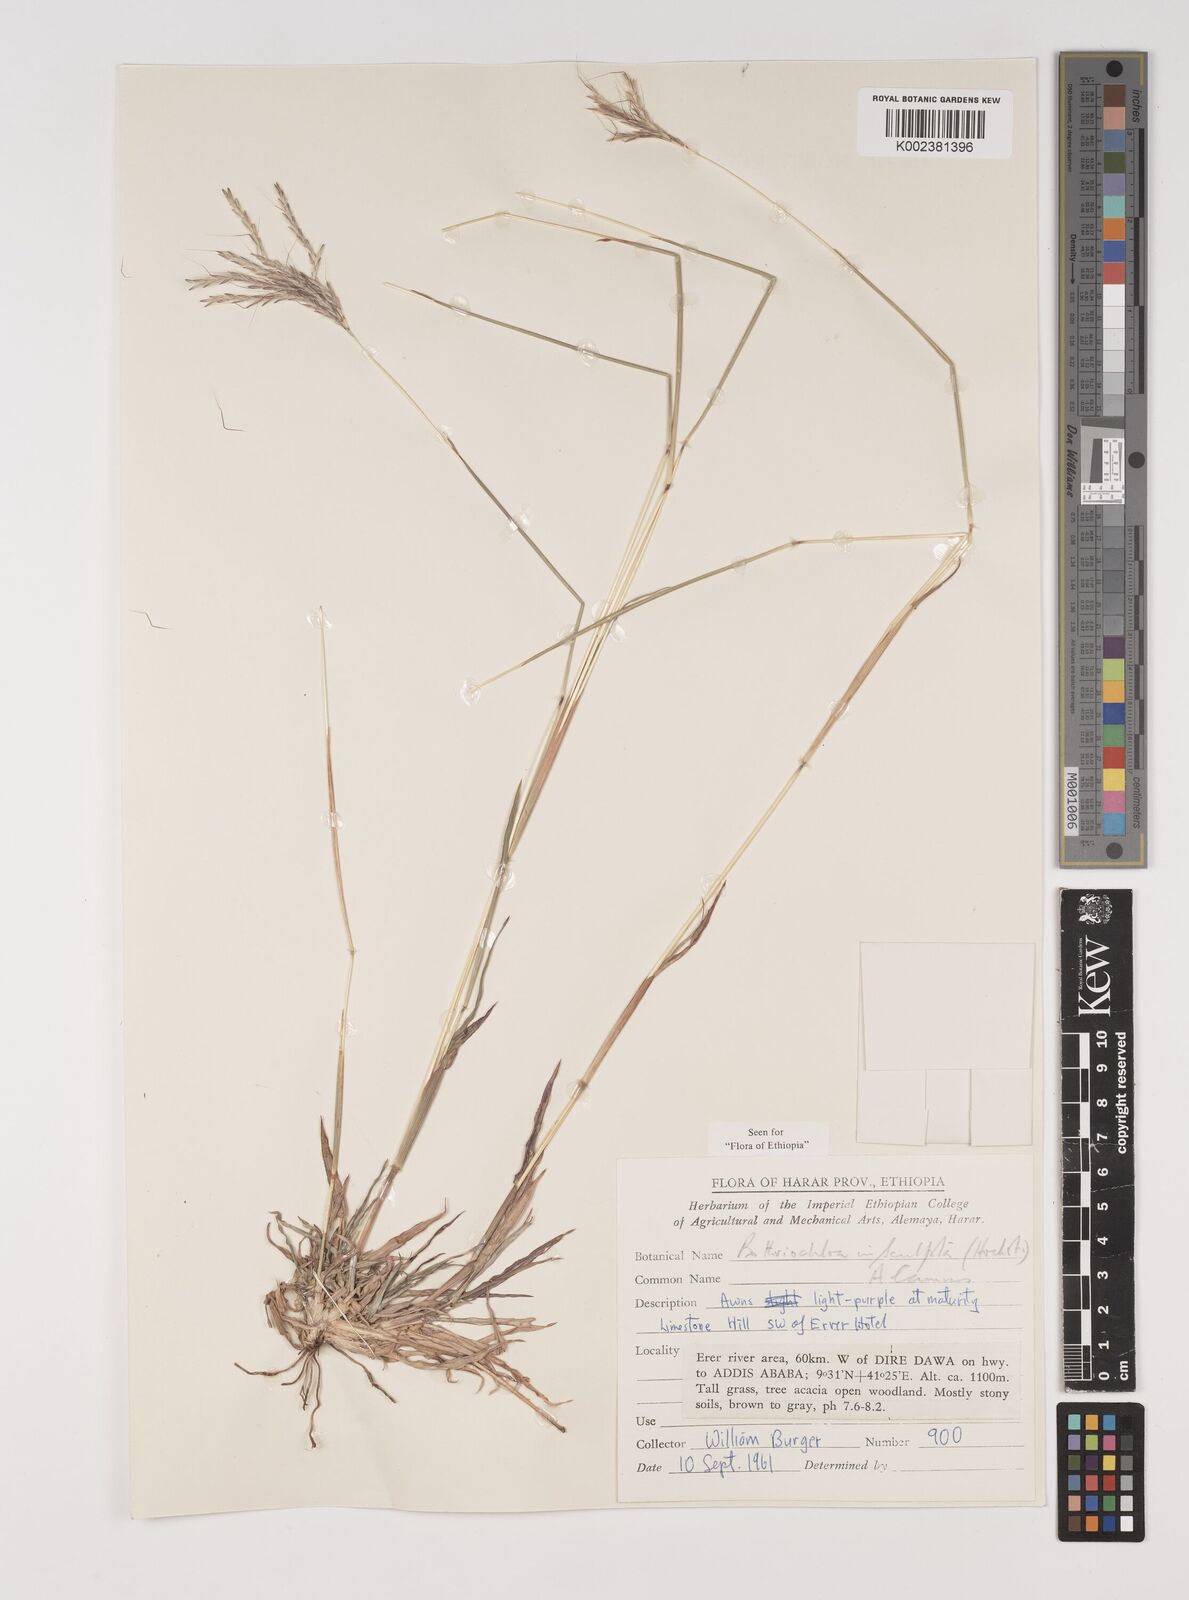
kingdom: Plantae
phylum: Tracheophyta
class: Liliopsida
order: Poales
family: Poaceae
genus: Bothriochloa
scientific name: Bothriochloa insculpta
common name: Creeping-bluegrass
